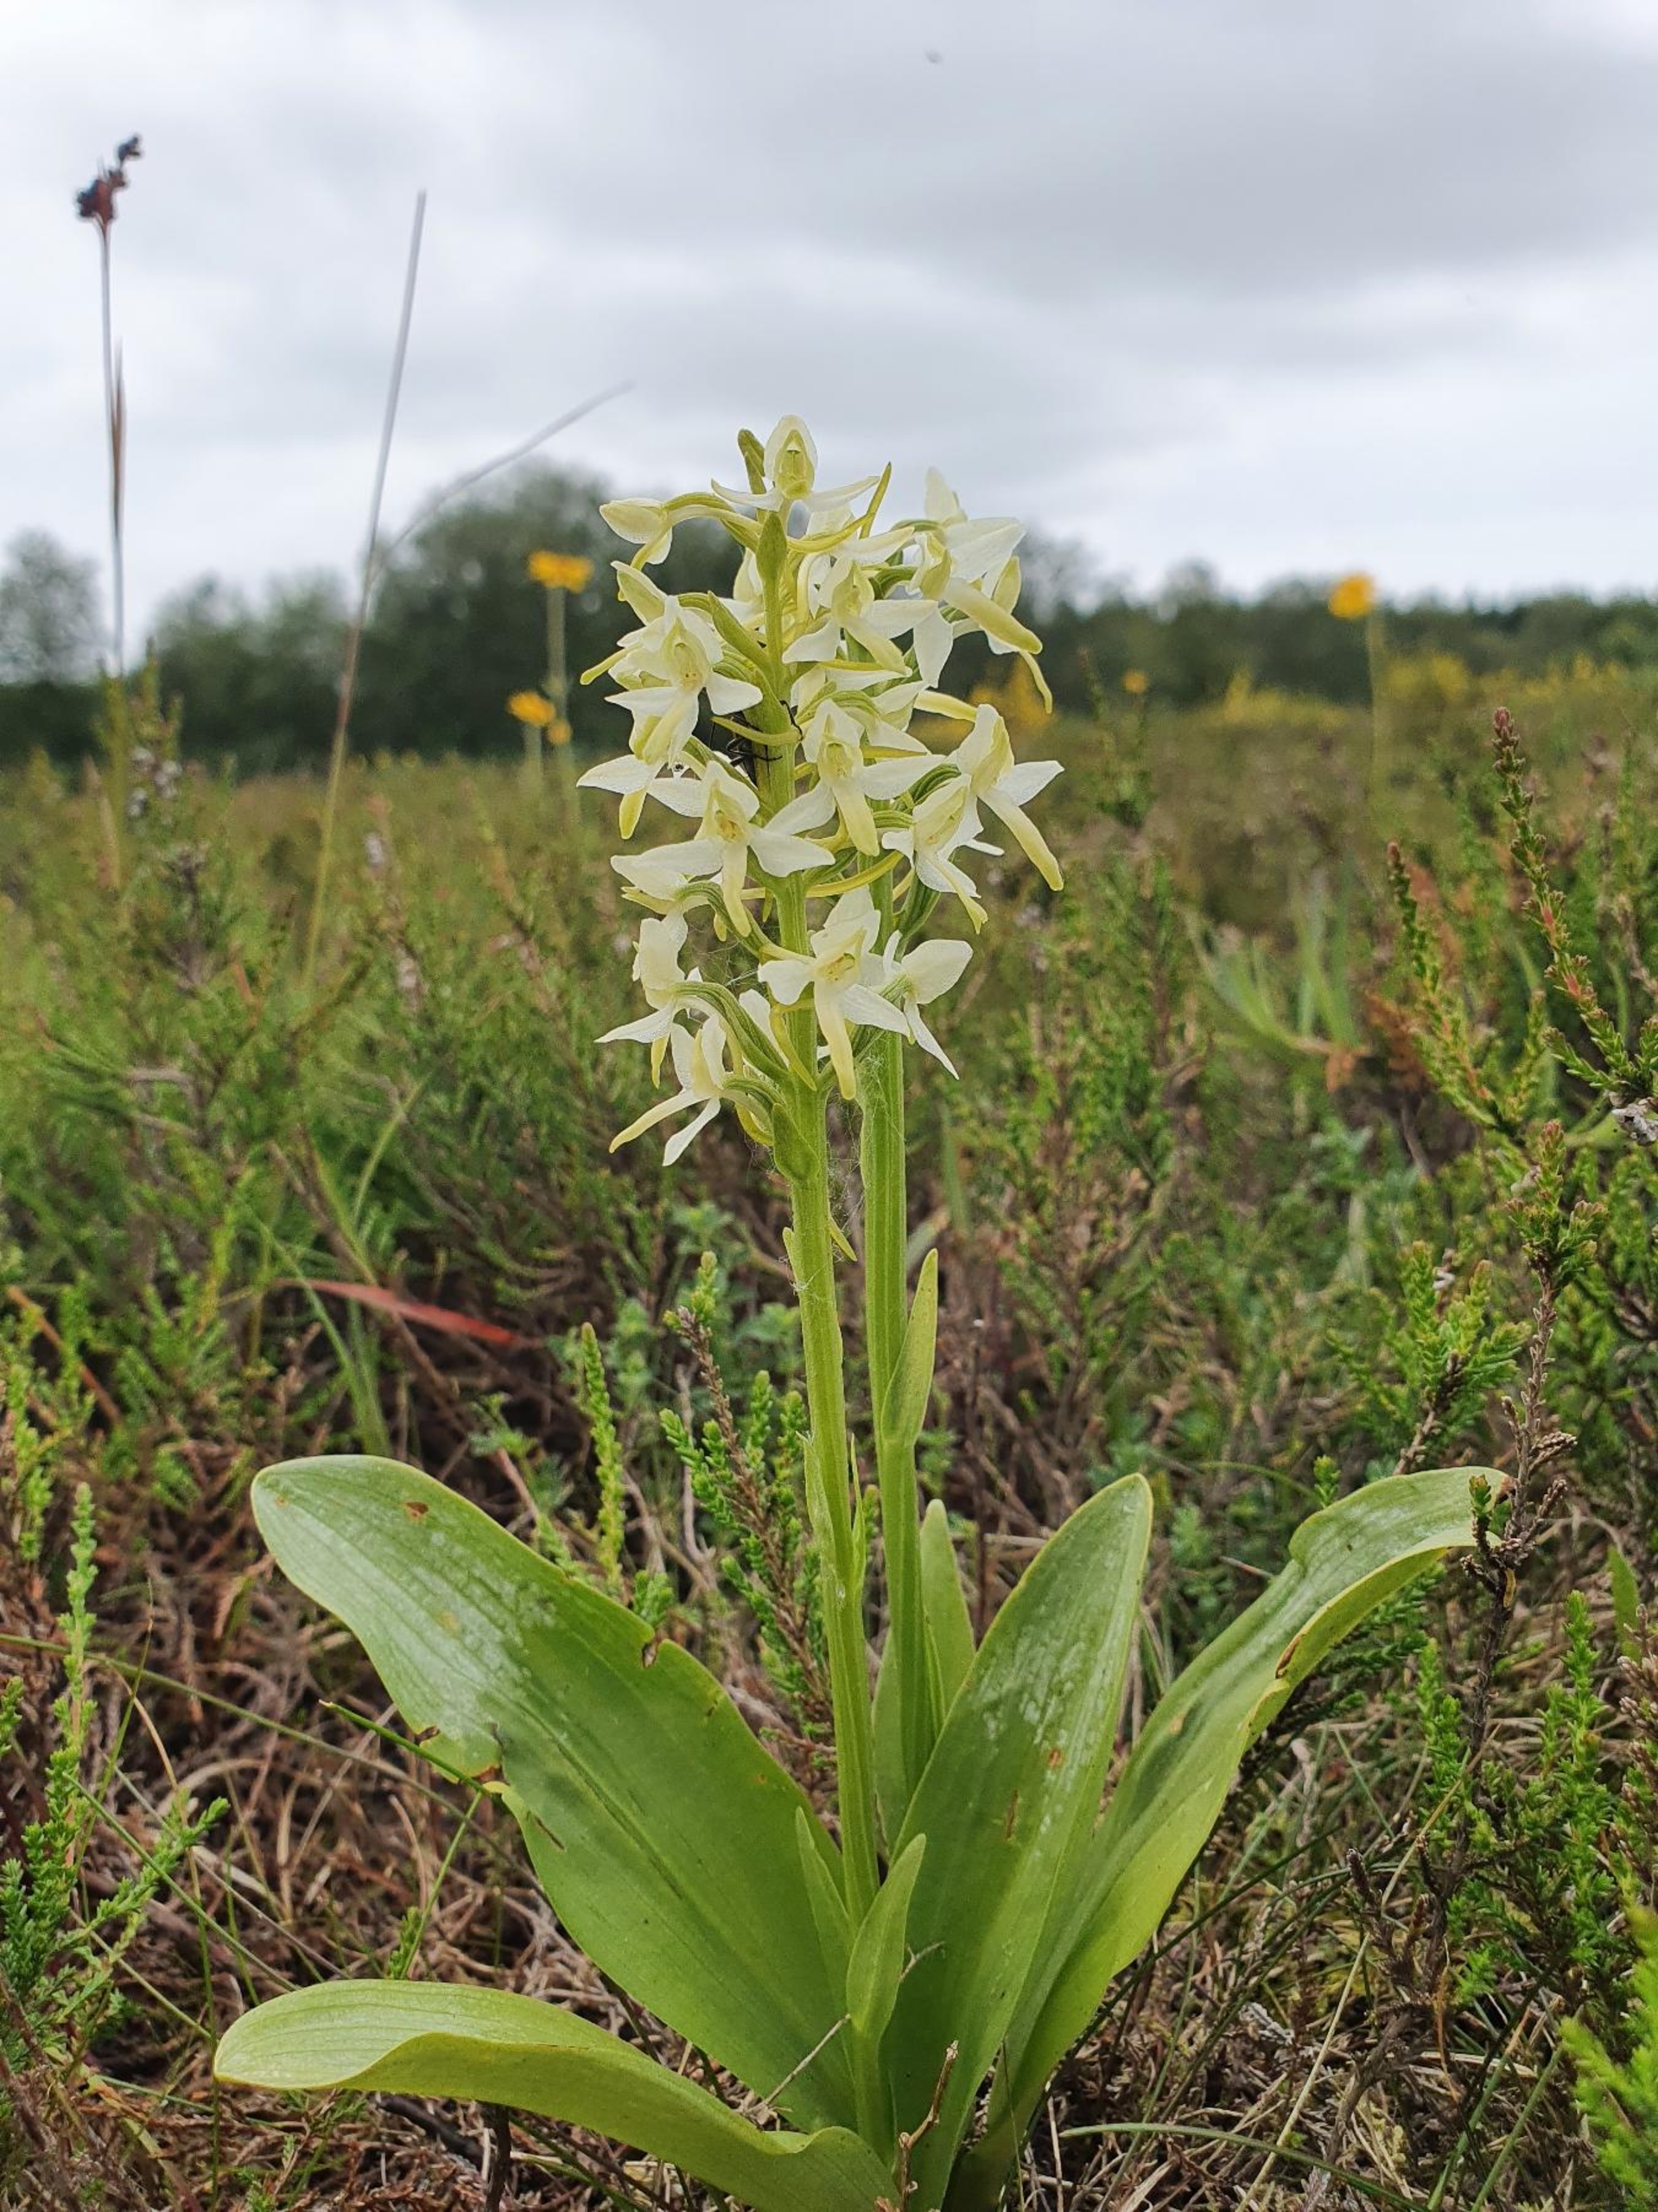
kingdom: Plantae
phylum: Tracheophyta
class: Liliopsida
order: Asparagales
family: Orchidaceae
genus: Platanthera
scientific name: Platanthera bifolia
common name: Bakke-gøgelilje
